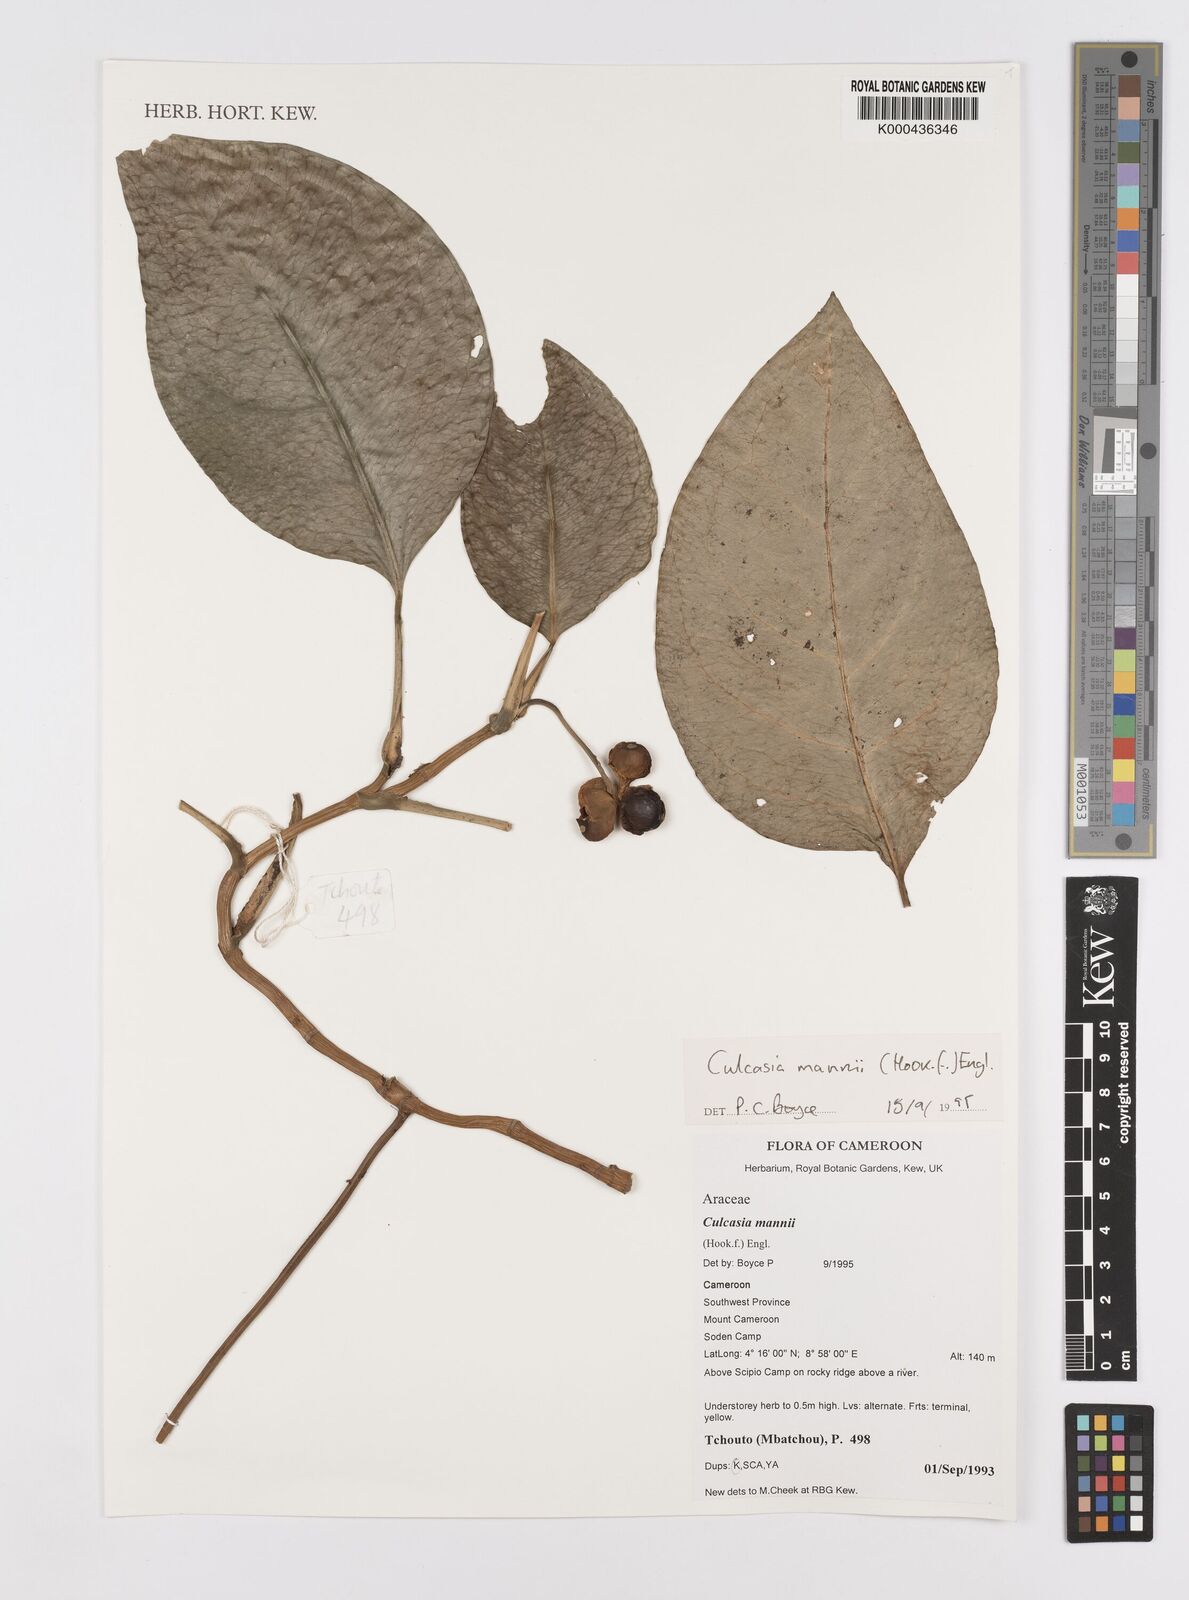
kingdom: Plantae
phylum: Tracheophyta
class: Liliopsida
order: Alismatales
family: Araceae
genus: Culcasia
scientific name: Culcasia mannii
